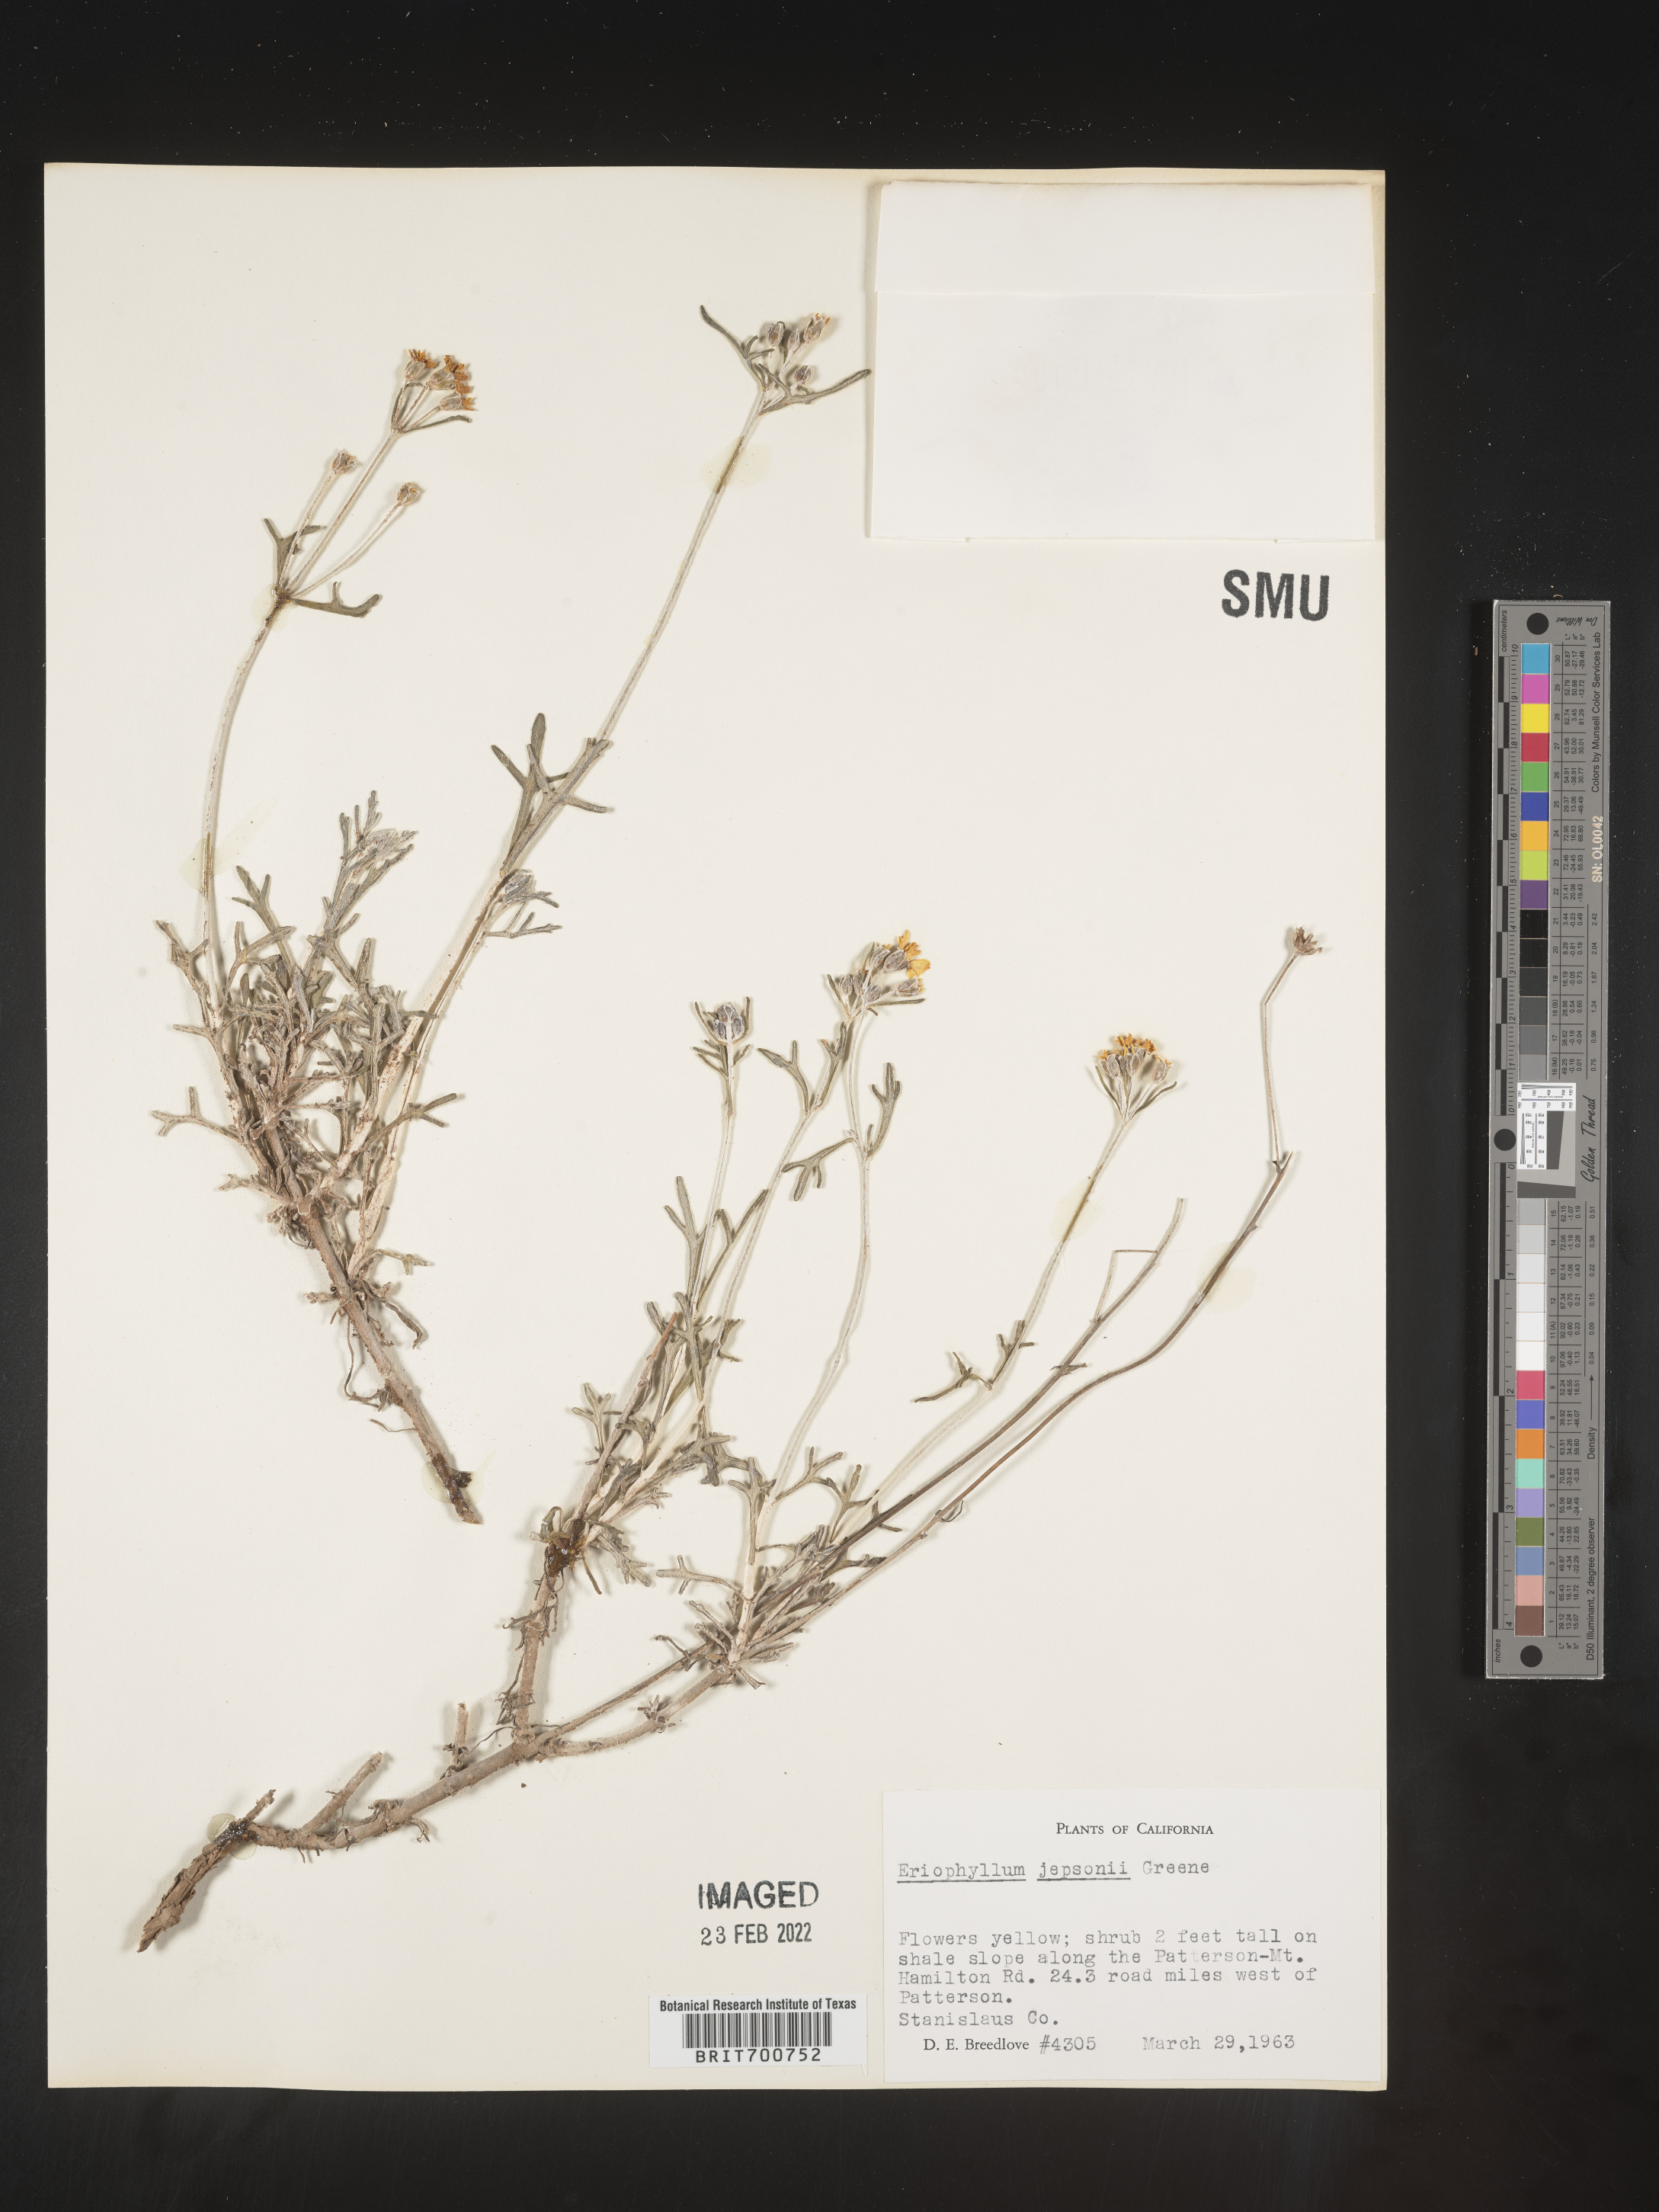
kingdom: Plantae
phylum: Tracheophyta
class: Magnoliopsida
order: Asterales
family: Asteraceae
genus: Eriophyllum
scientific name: Eriophyllum jepsonii
